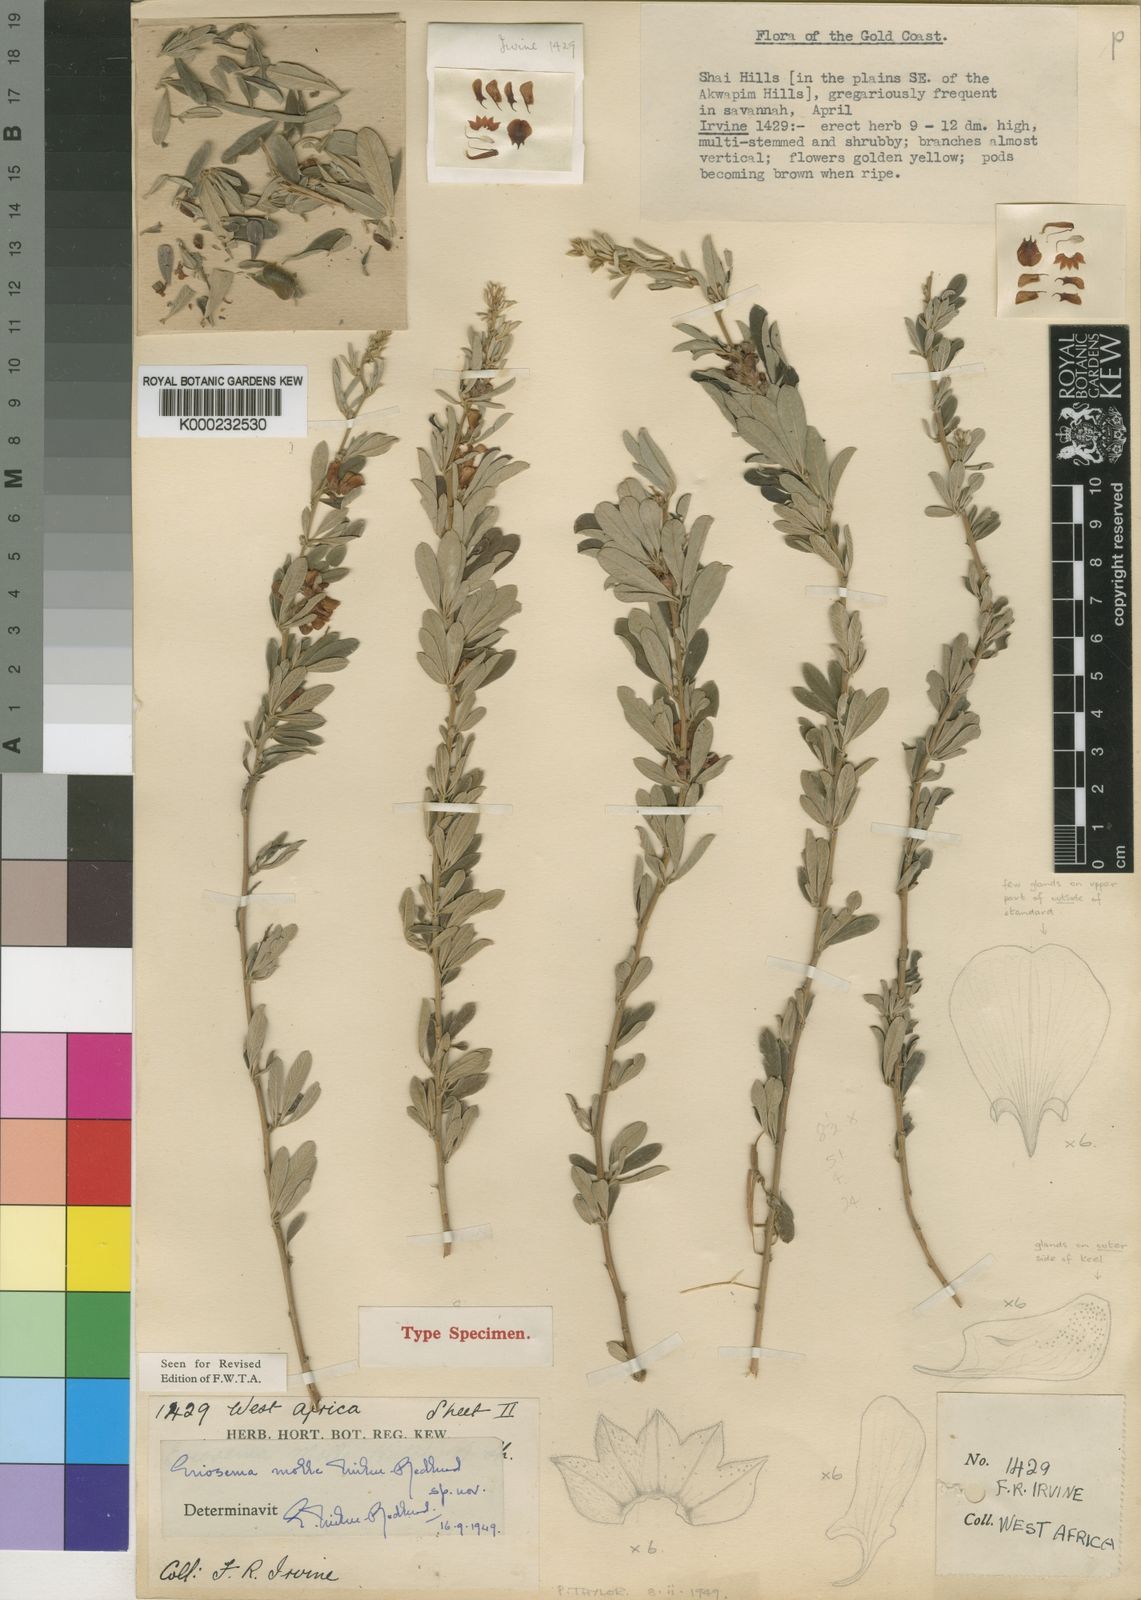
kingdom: Plantae
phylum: Tracheophyta
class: Magnoliopsida
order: Fabales
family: Fabaceae
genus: Eriosema
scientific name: Eriosema molle
